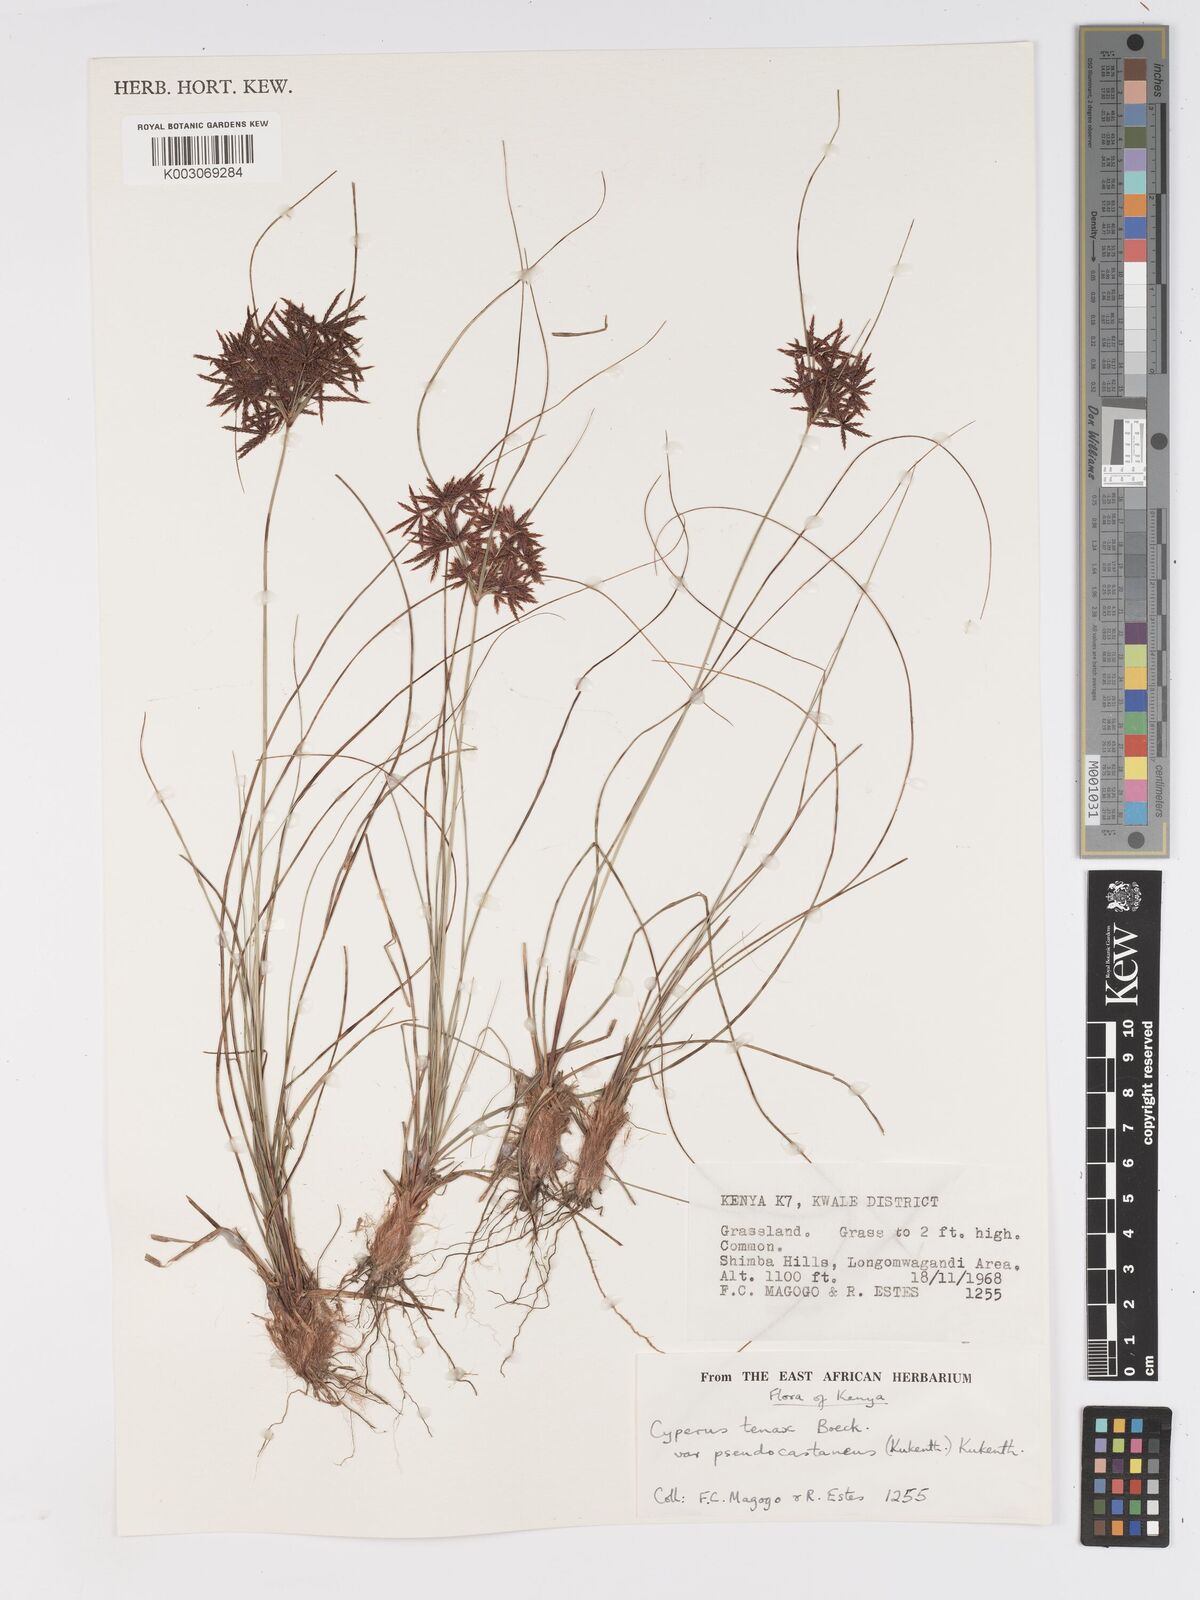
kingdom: Plantae
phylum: Tracheophyta
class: Liliopsida
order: Poales
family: Cyperaceae
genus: Cyperus
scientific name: Cyperus tenax
